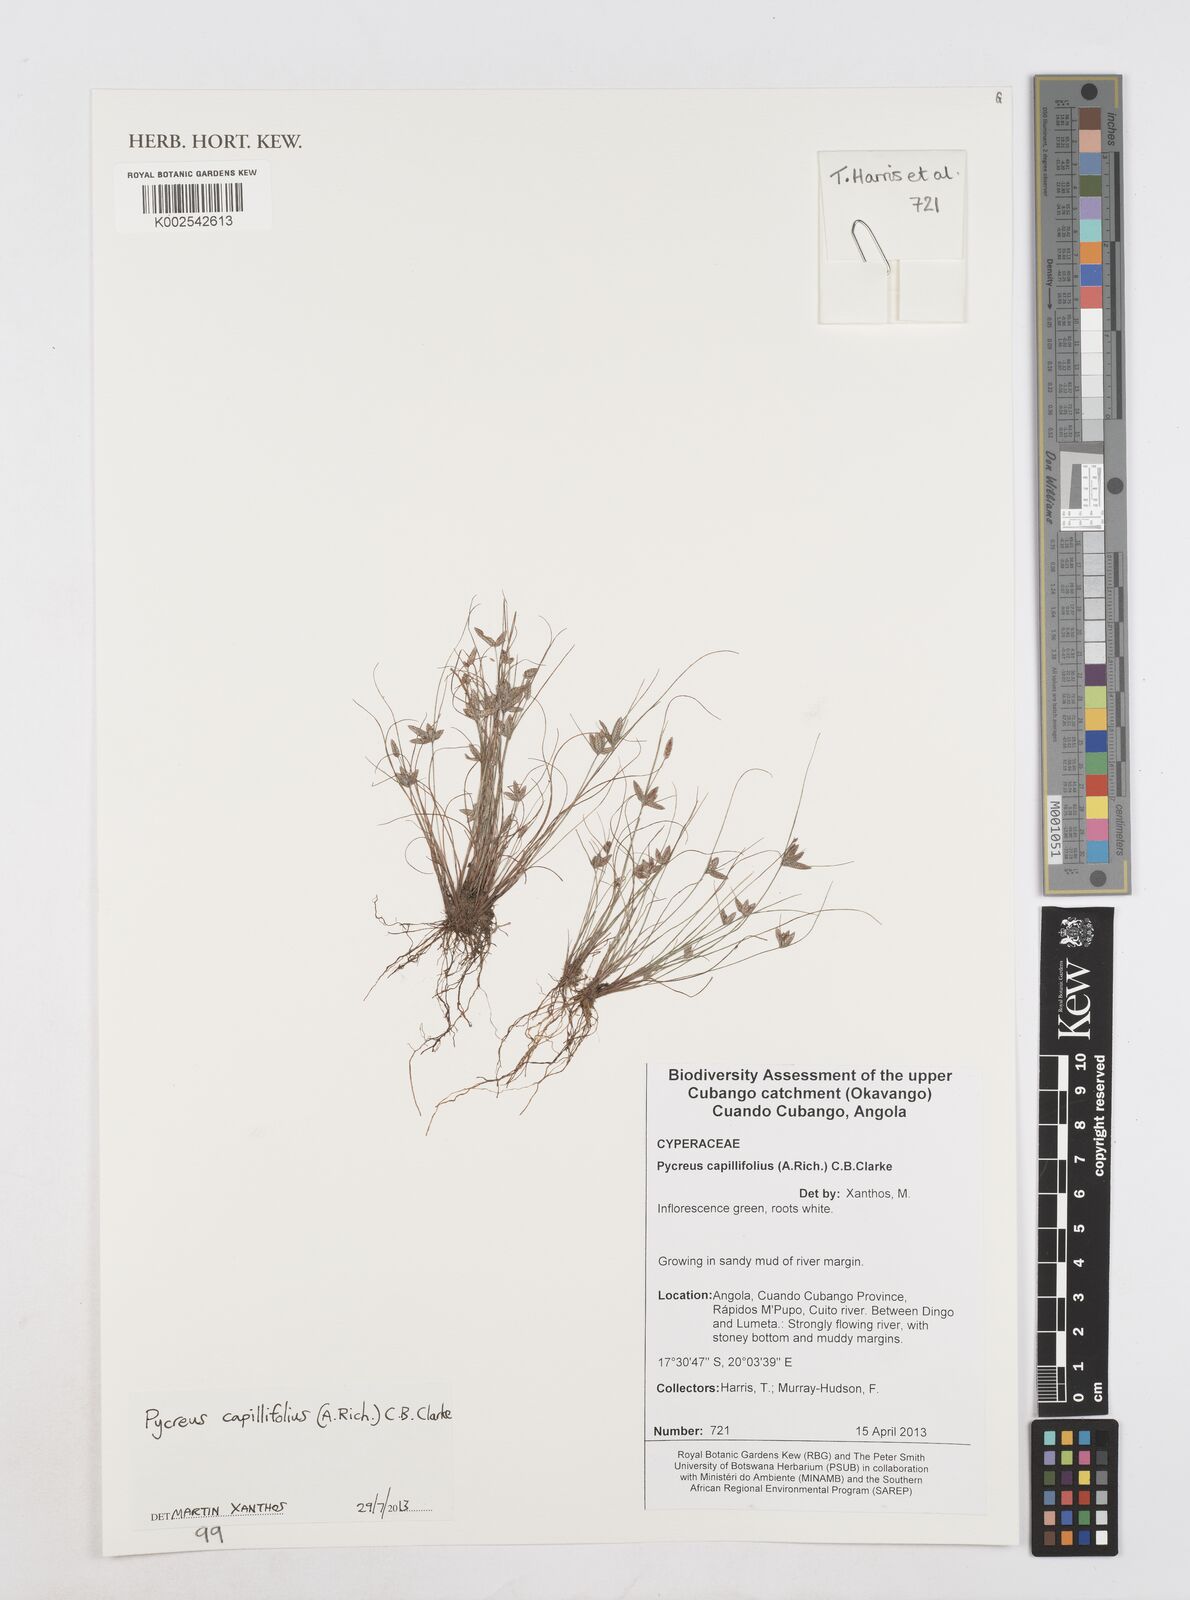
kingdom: Plantae
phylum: Tracheophyta
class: Liliopsida
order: Poales
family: Cyperaceae
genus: Cyperus
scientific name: Cyperus capillifolius
